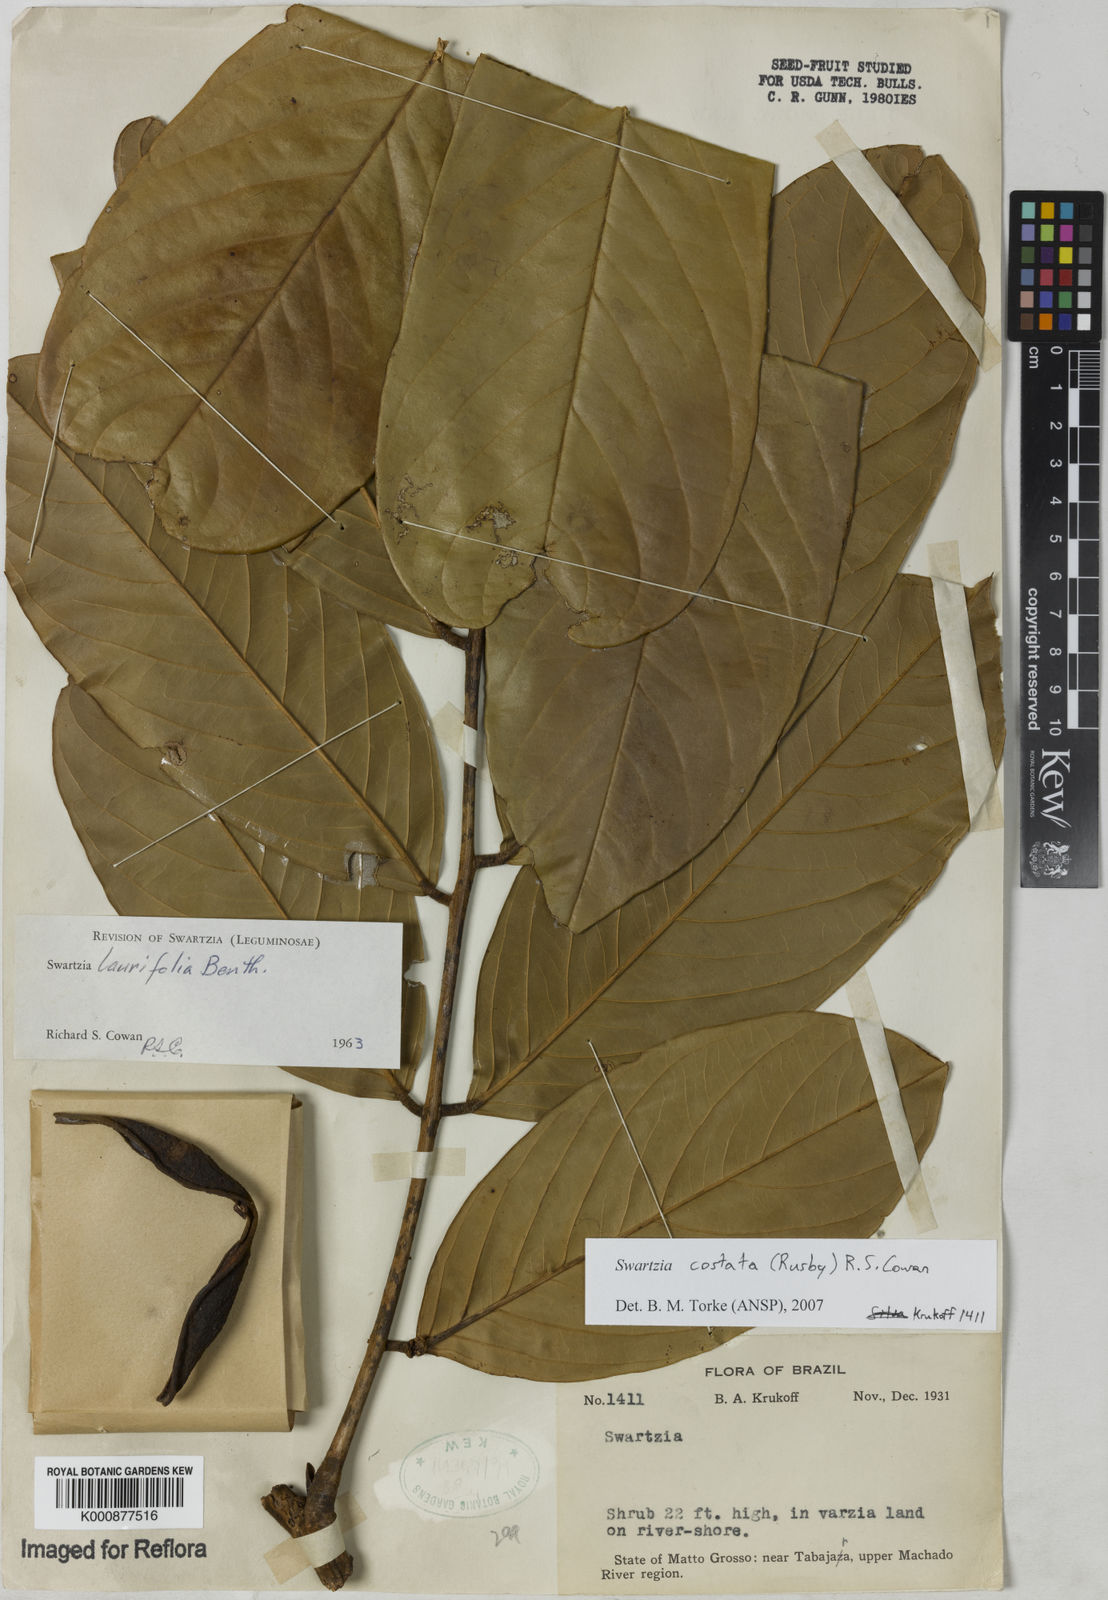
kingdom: Plantae
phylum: Tracheophyta
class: Magnoliopsida
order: Fabales
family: Fabaceae
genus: Swartzia
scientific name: Swartzia costata
